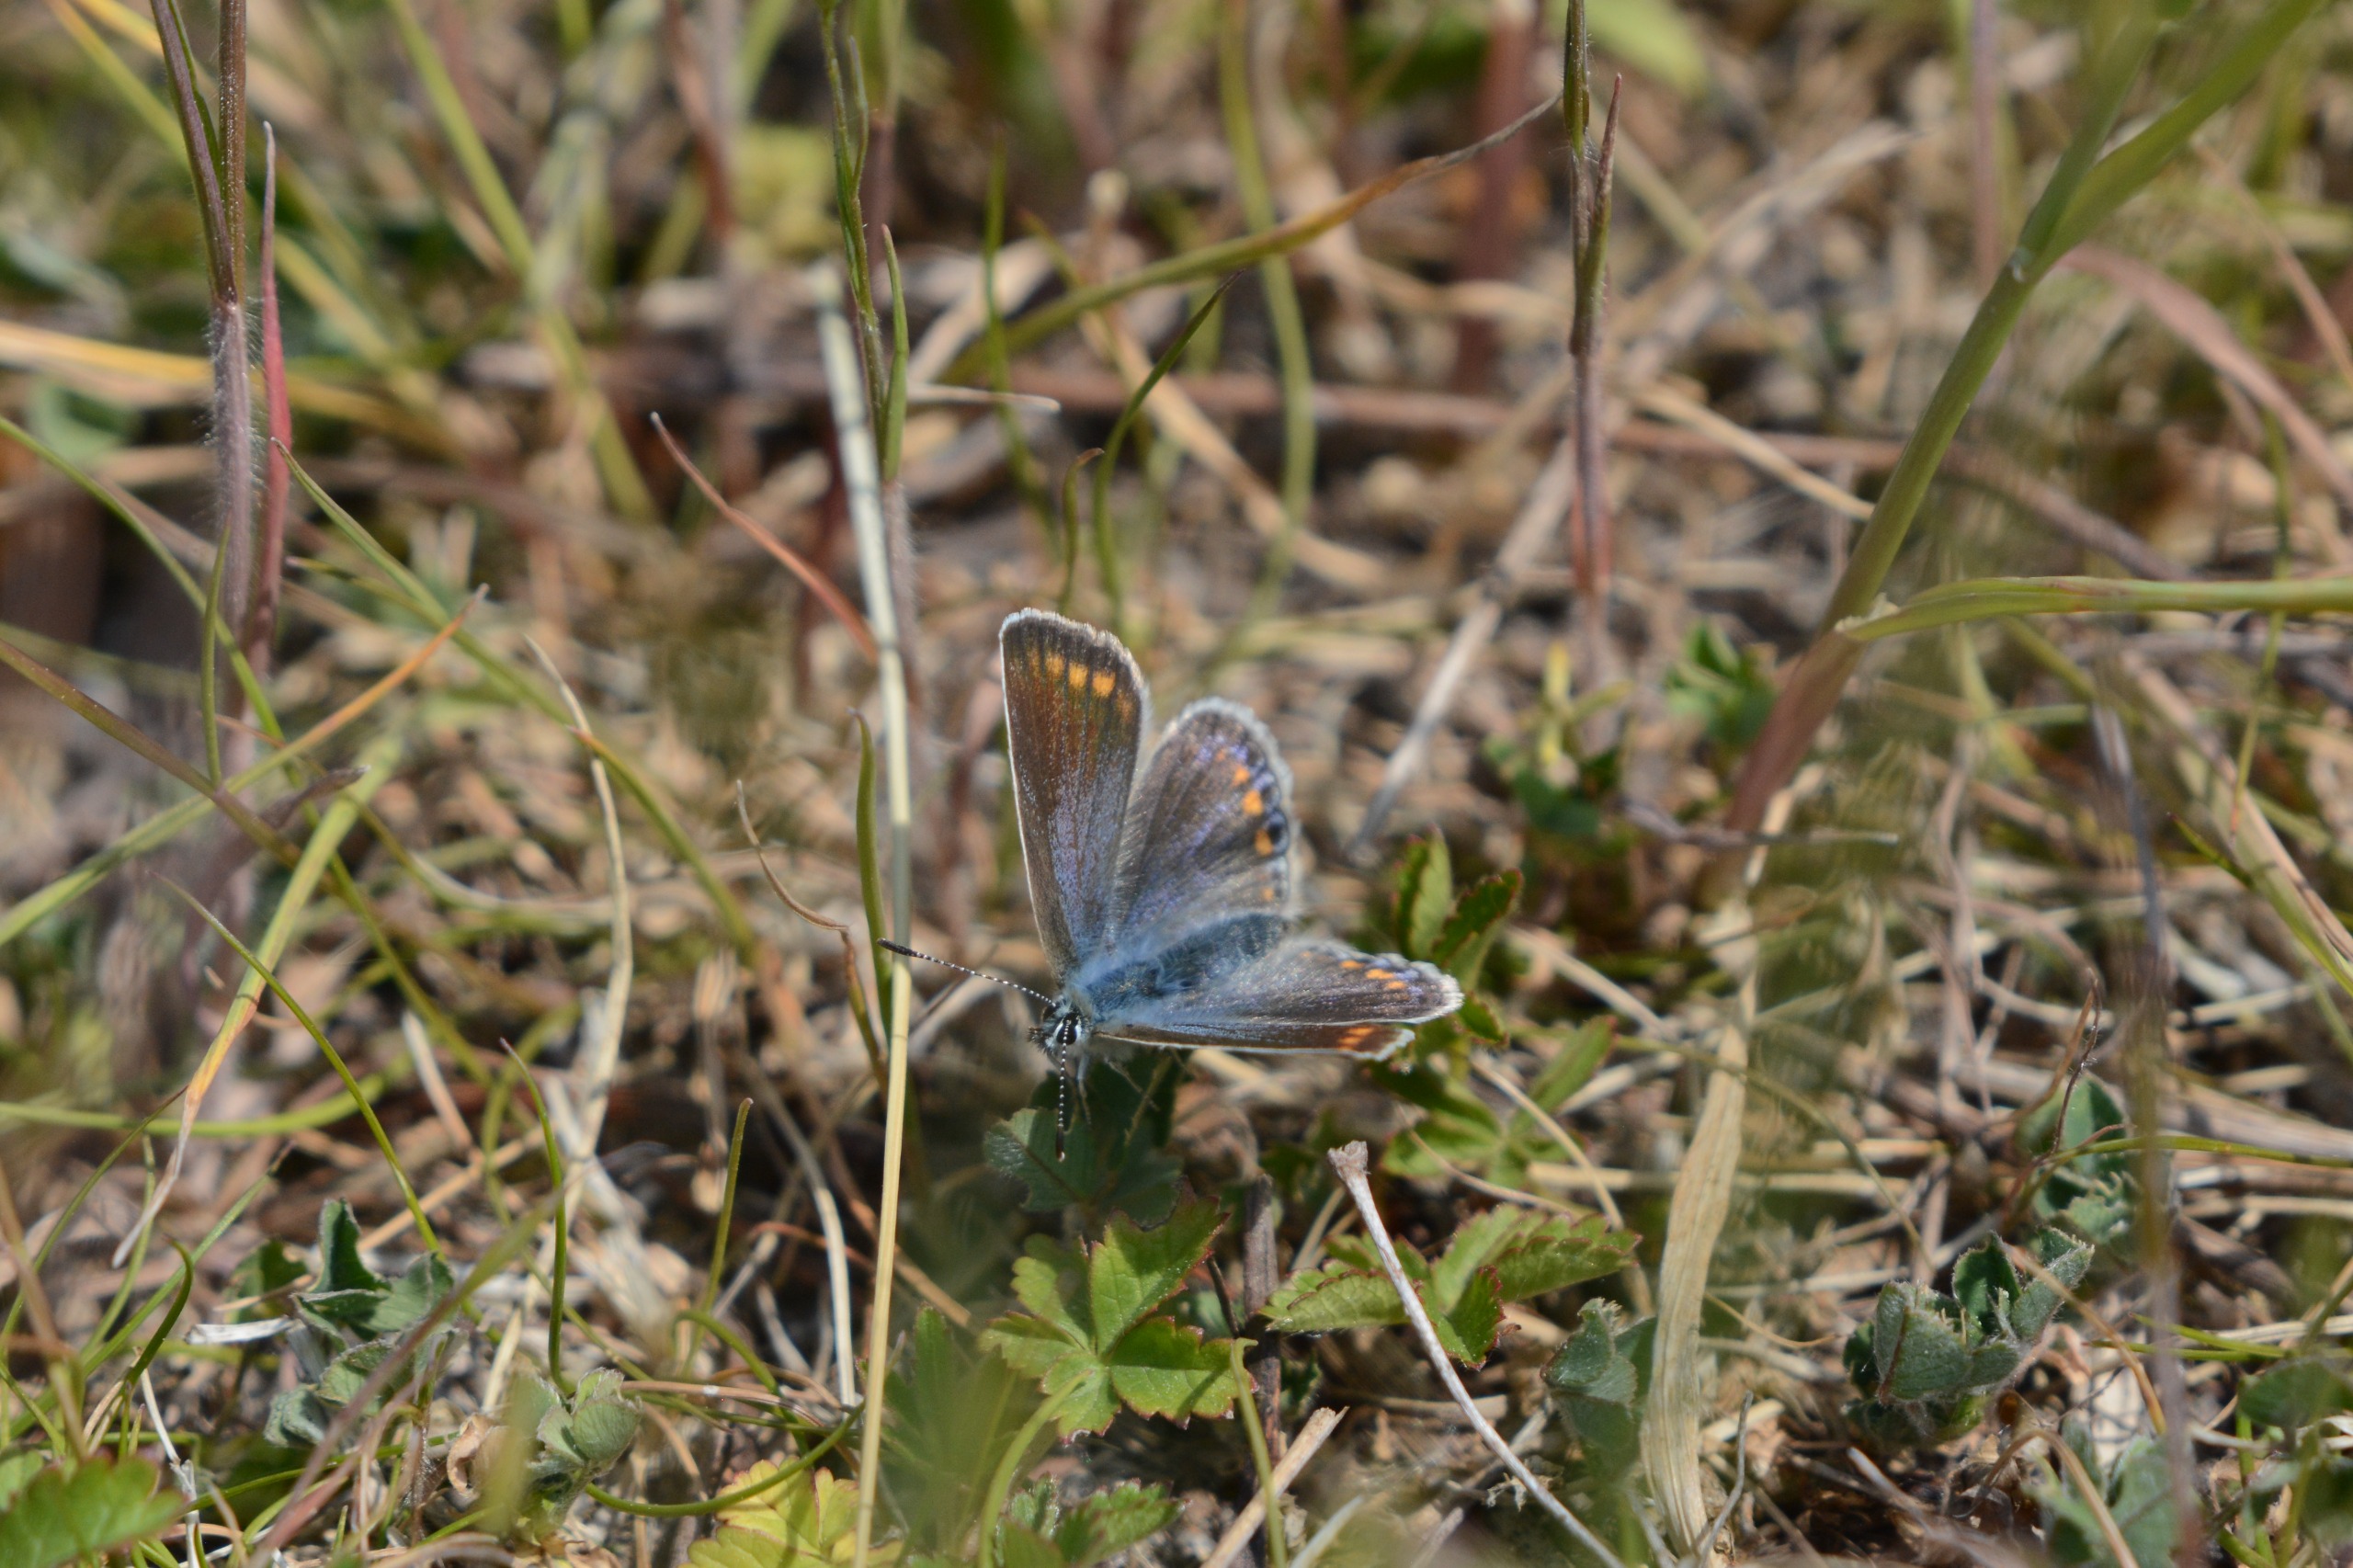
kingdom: Animalia
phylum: Arthropoda
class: Insecta
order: Lepidoptera
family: Lycaenidae
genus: Polyommatus
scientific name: Polyommatus icarus
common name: Almindelig blåfugl
